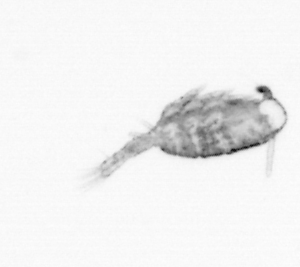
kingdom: Animalia
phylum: Arthropoda
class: Copepoda
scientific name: Copepoda
